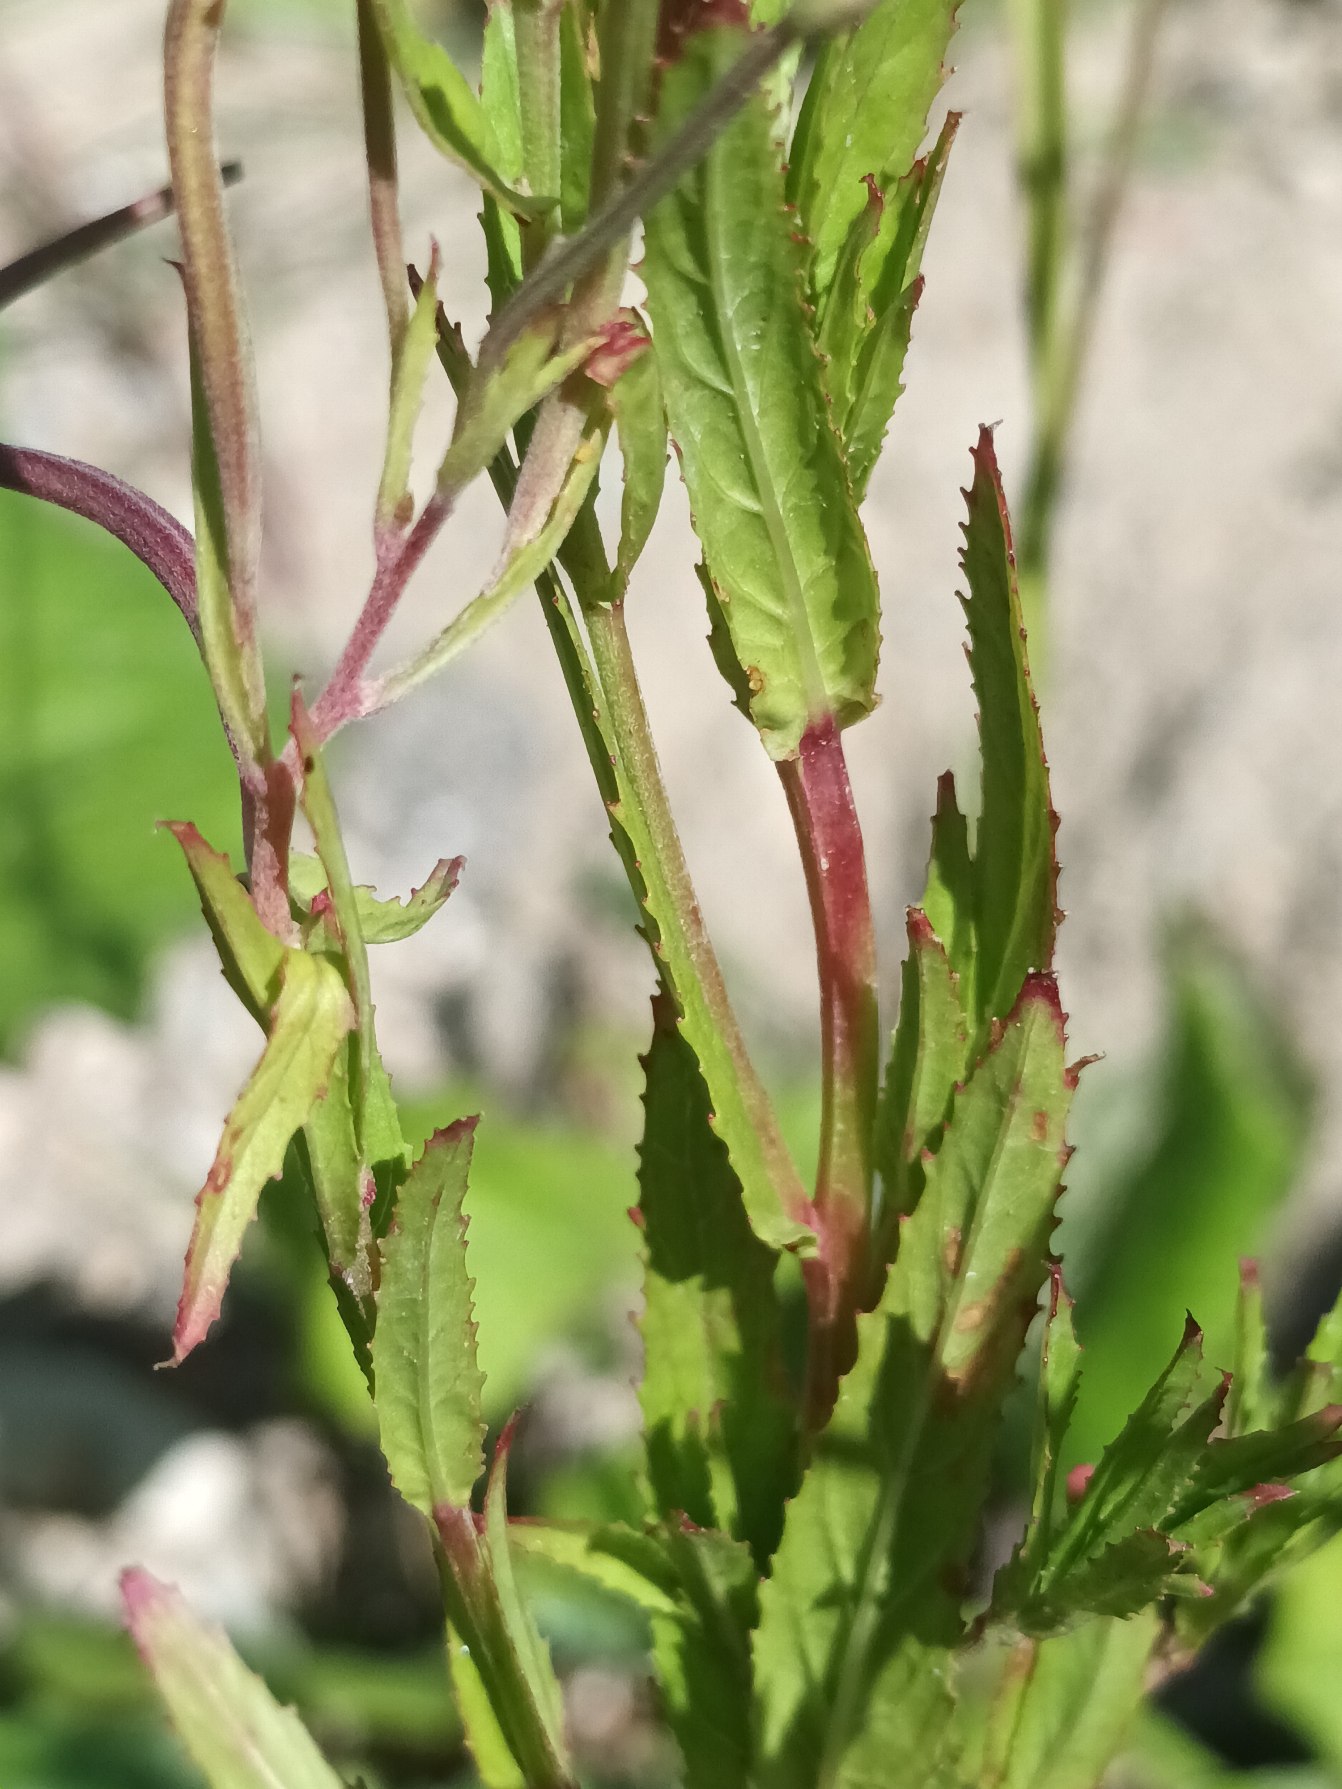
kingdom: Plantae
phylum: Tracheophyta
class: Magnoliopsida
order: Myrtales
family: Onagraceae
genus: Epilobium
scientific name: Epilobium tetragonum
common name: Kantet dueurt
